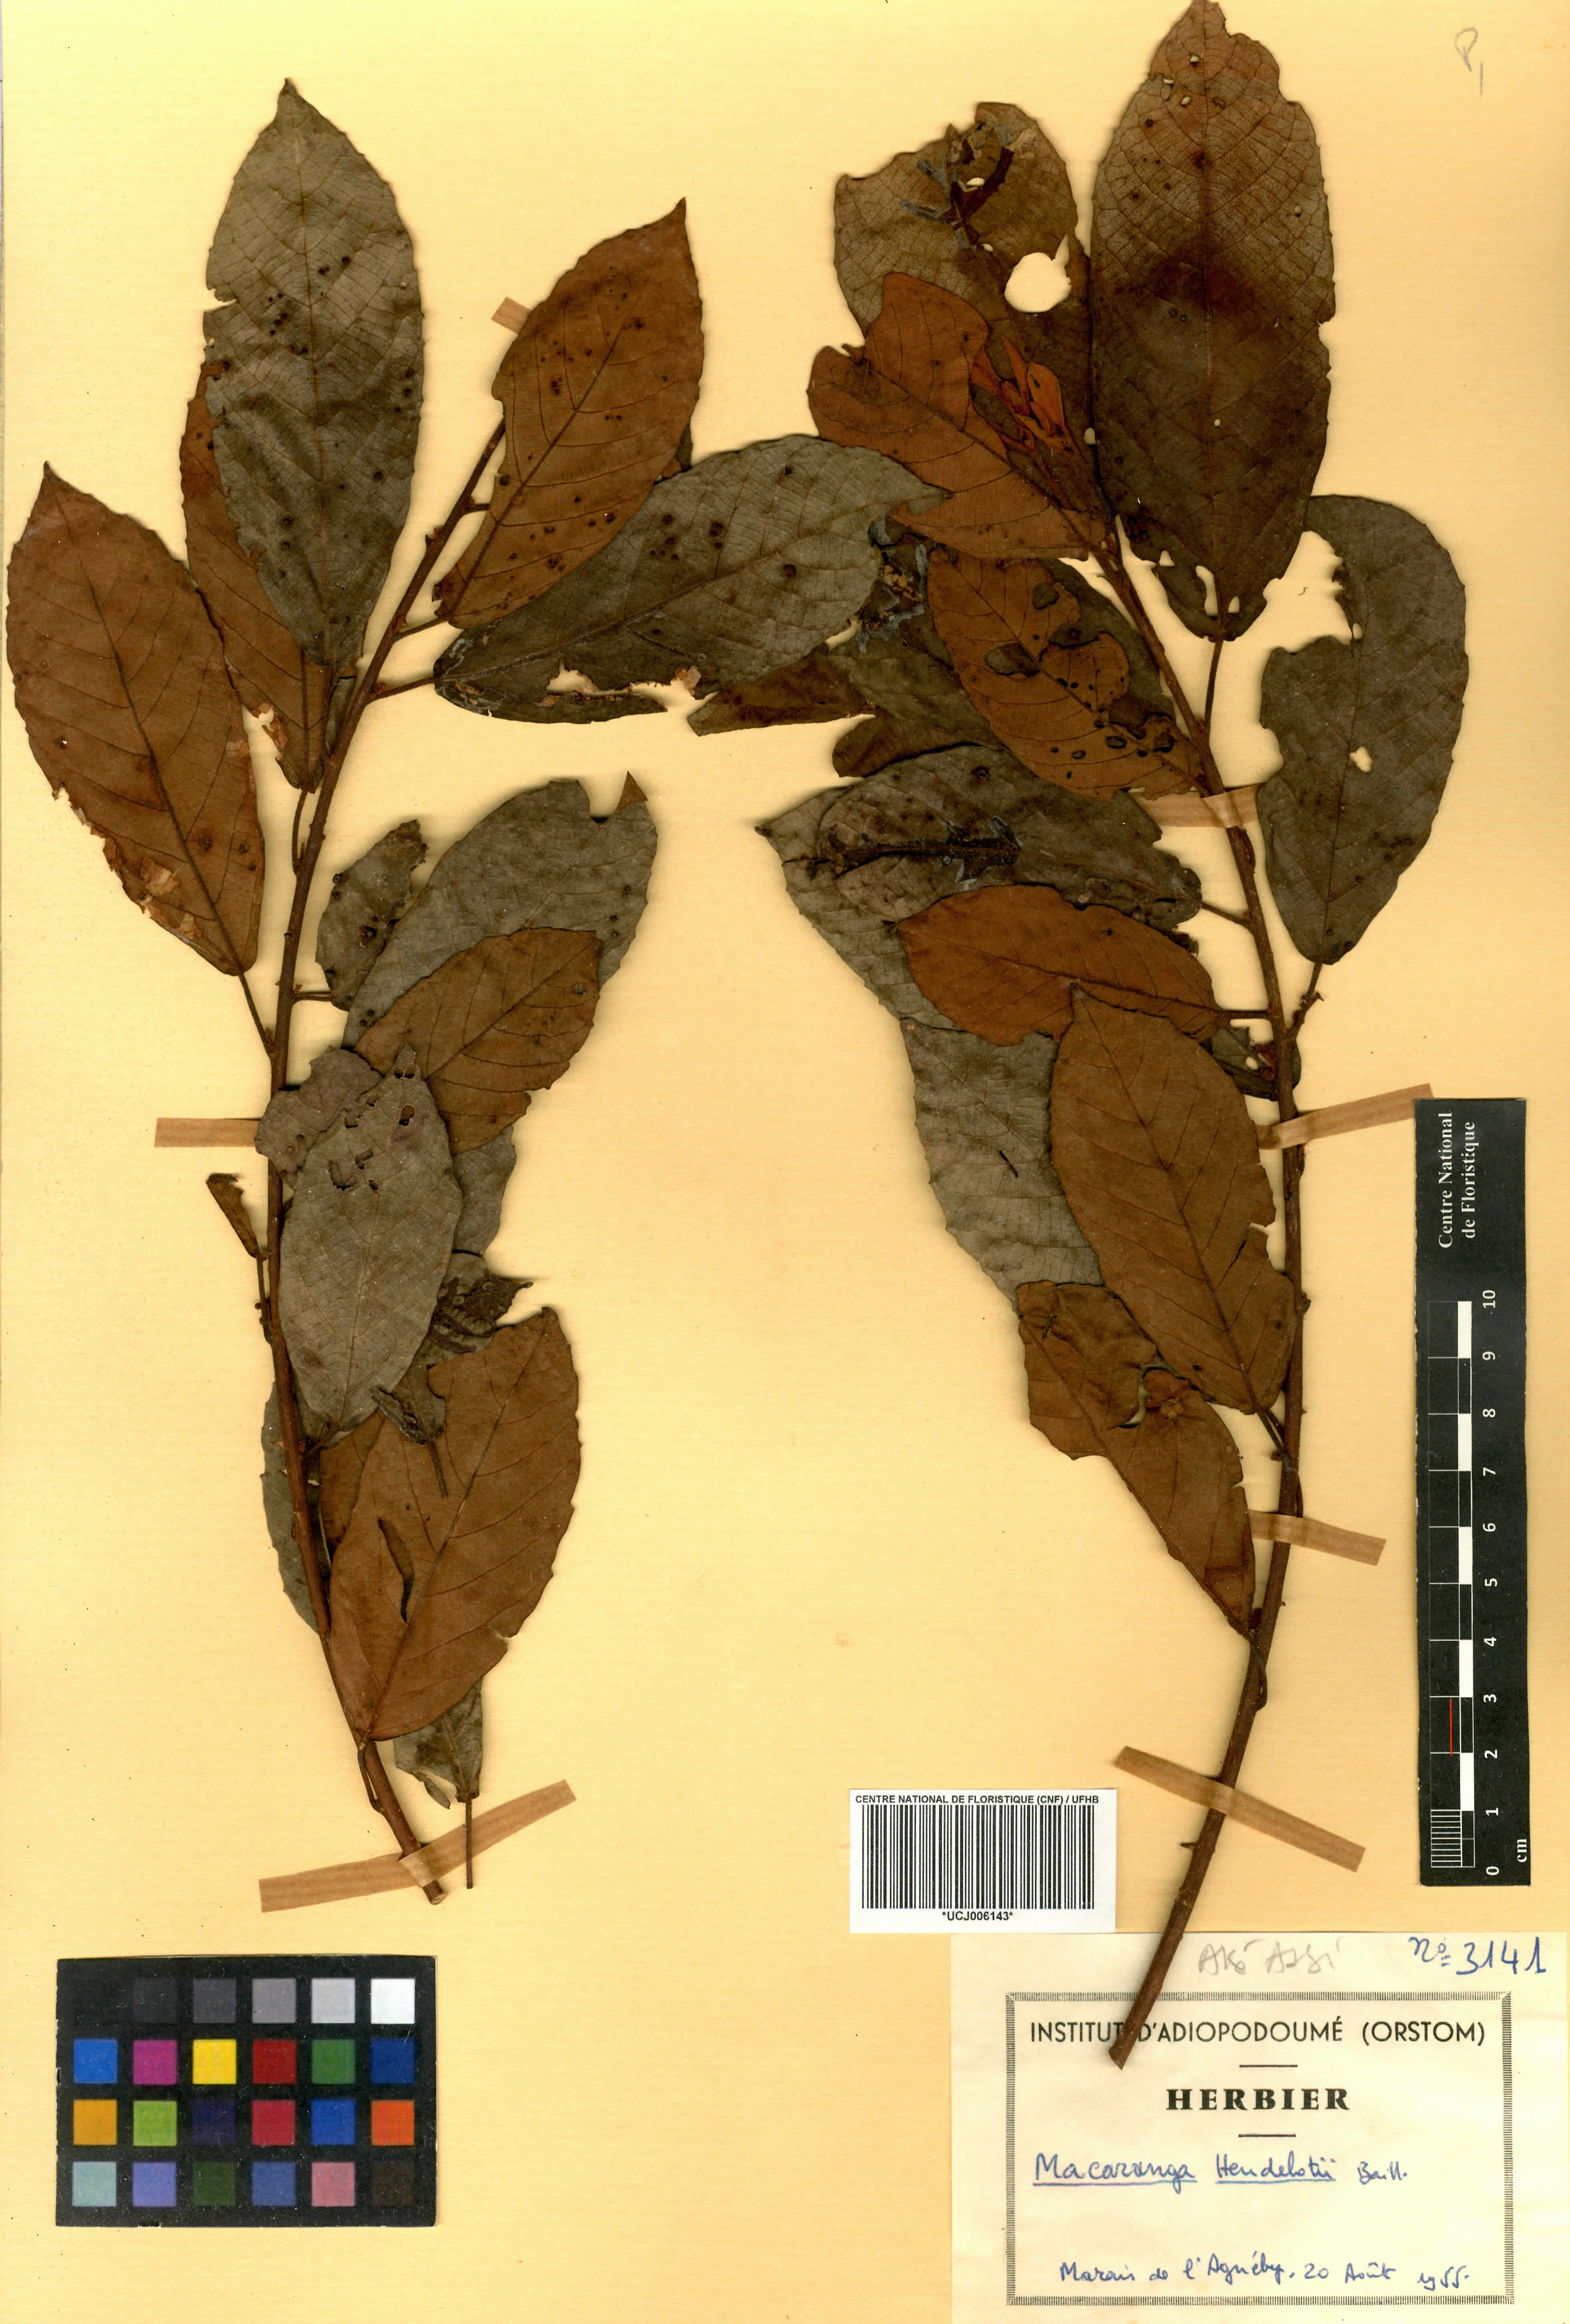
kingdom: Plantae
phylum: Tracheophyta
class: Magnoliopsida
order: Malpighiales
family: Euphorbiaceae
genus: Macaranga
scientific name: Macaranga heudelotii
